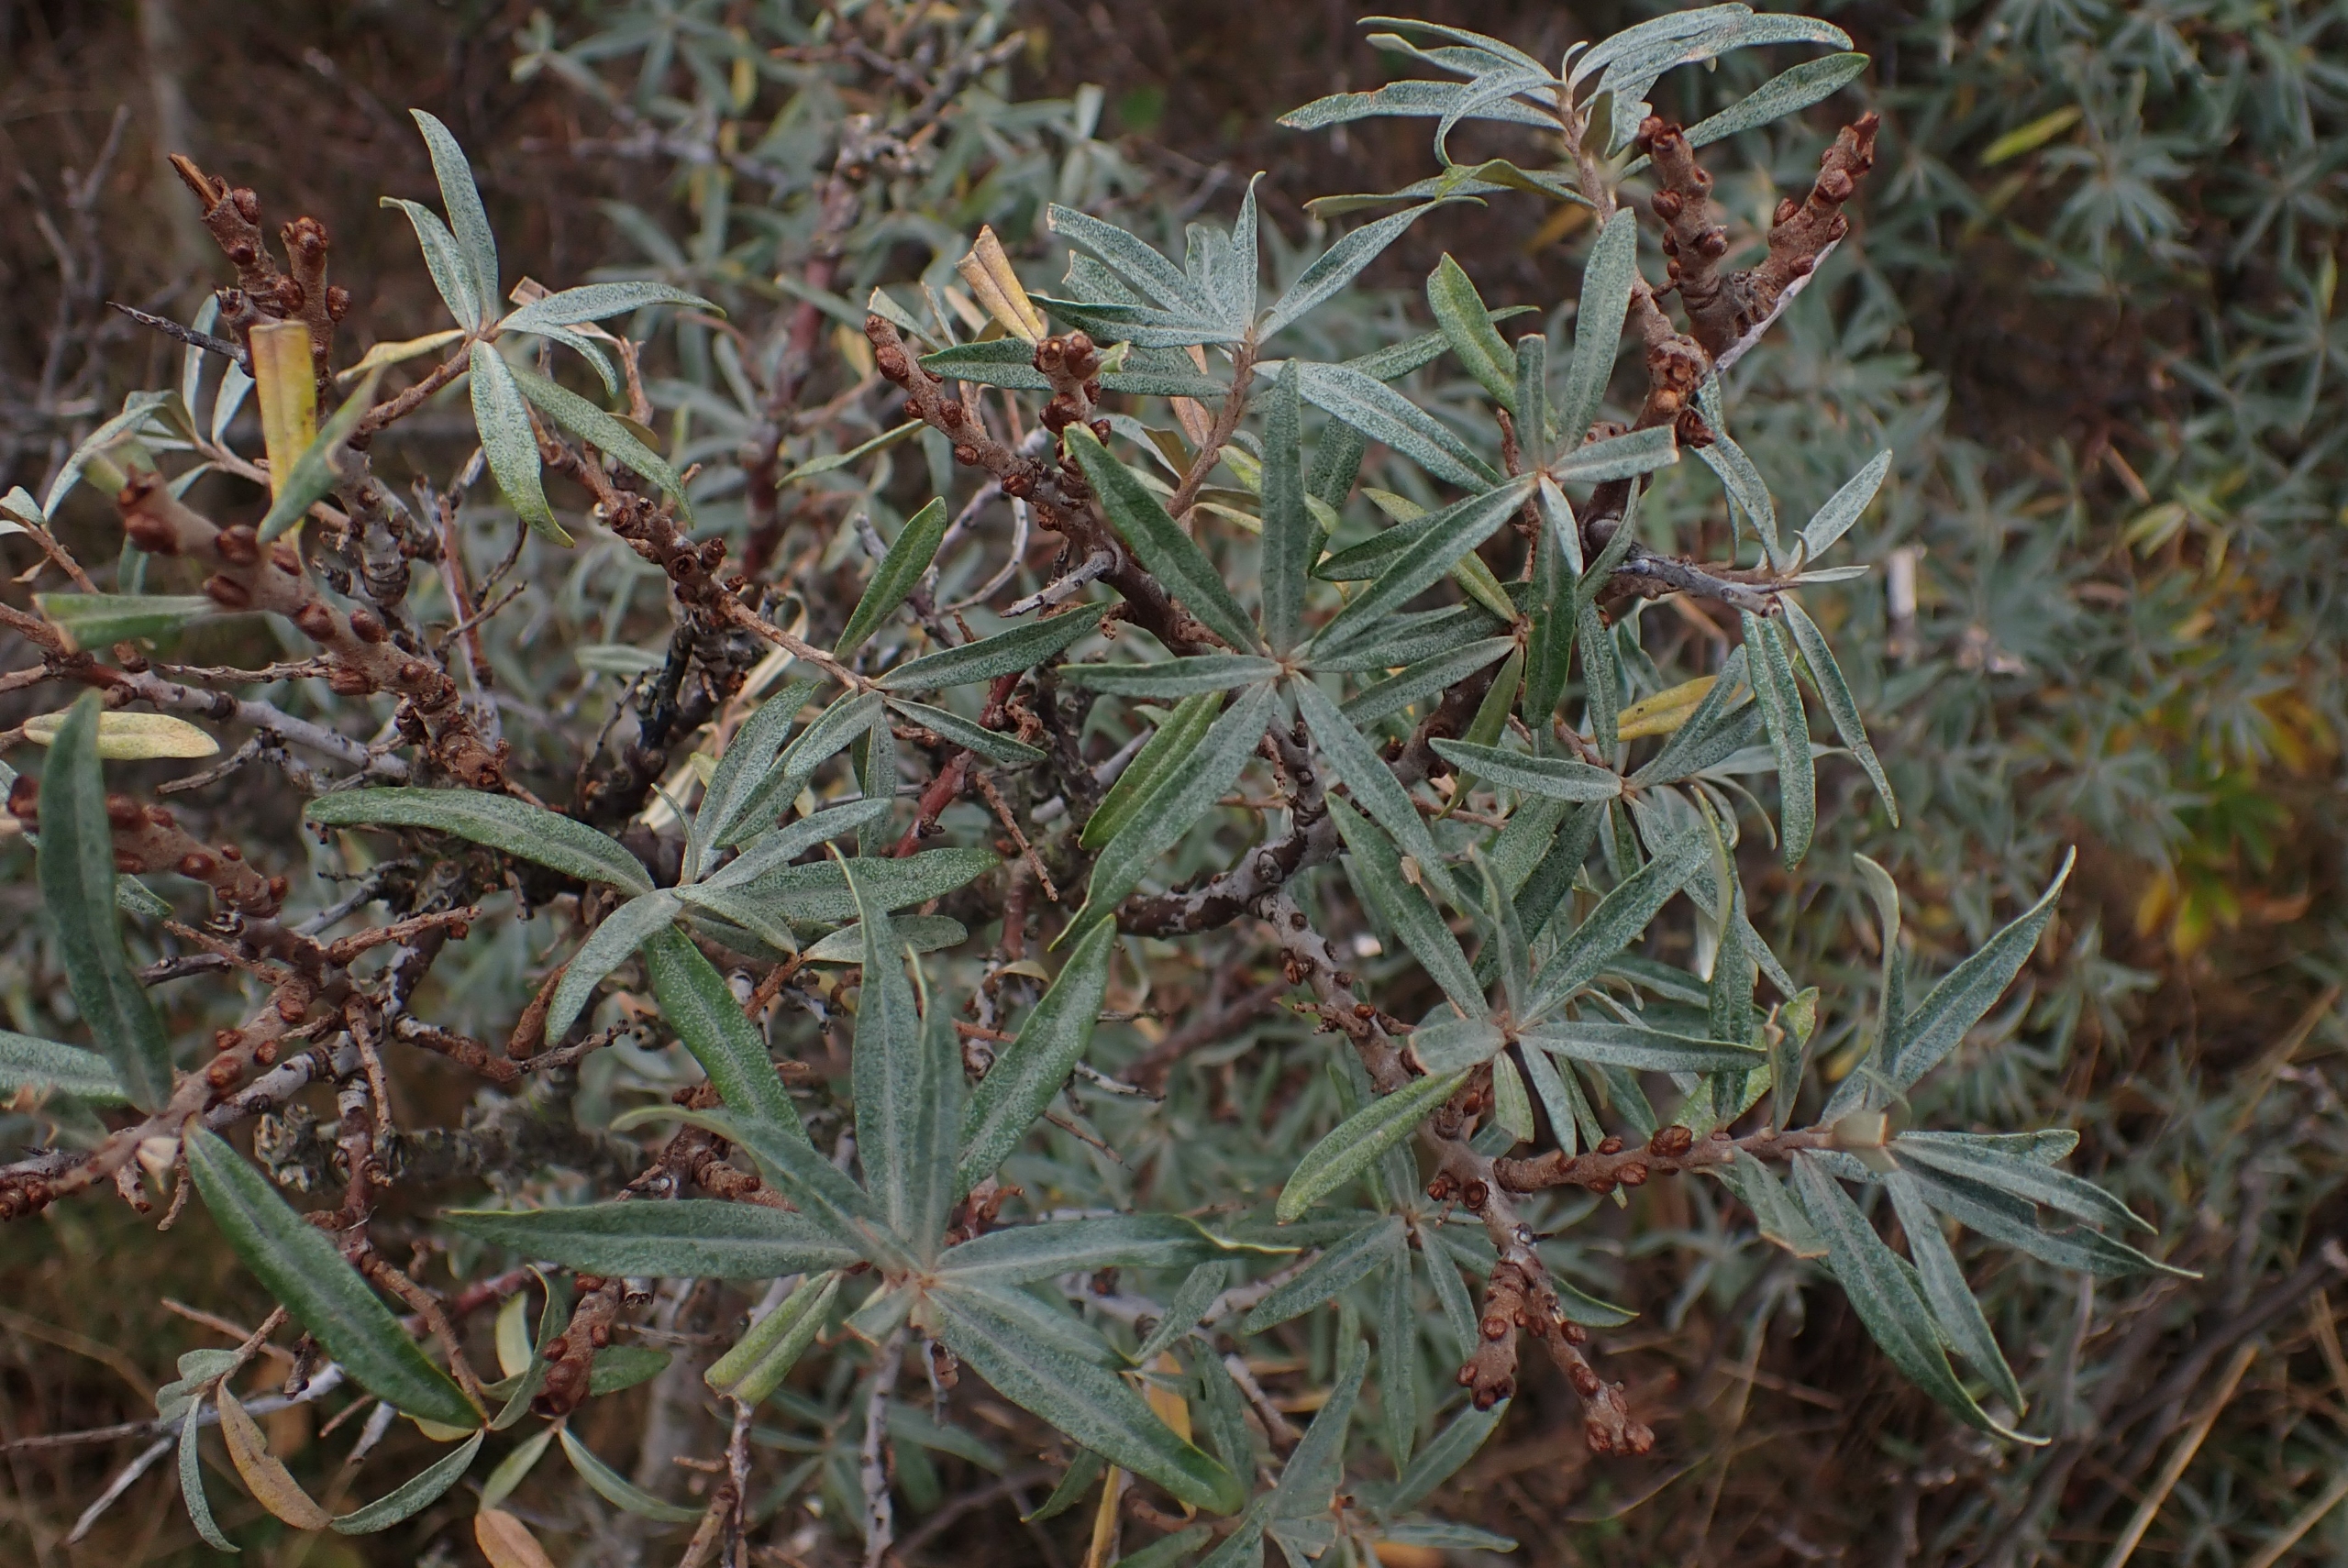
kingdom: Plantae
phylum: Tracheophyta
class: Magnoliopsida
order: Rosales
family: Elaeagnaceae
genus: Hippophae
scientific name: Hippophae rhamnoides
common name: Havtorn
